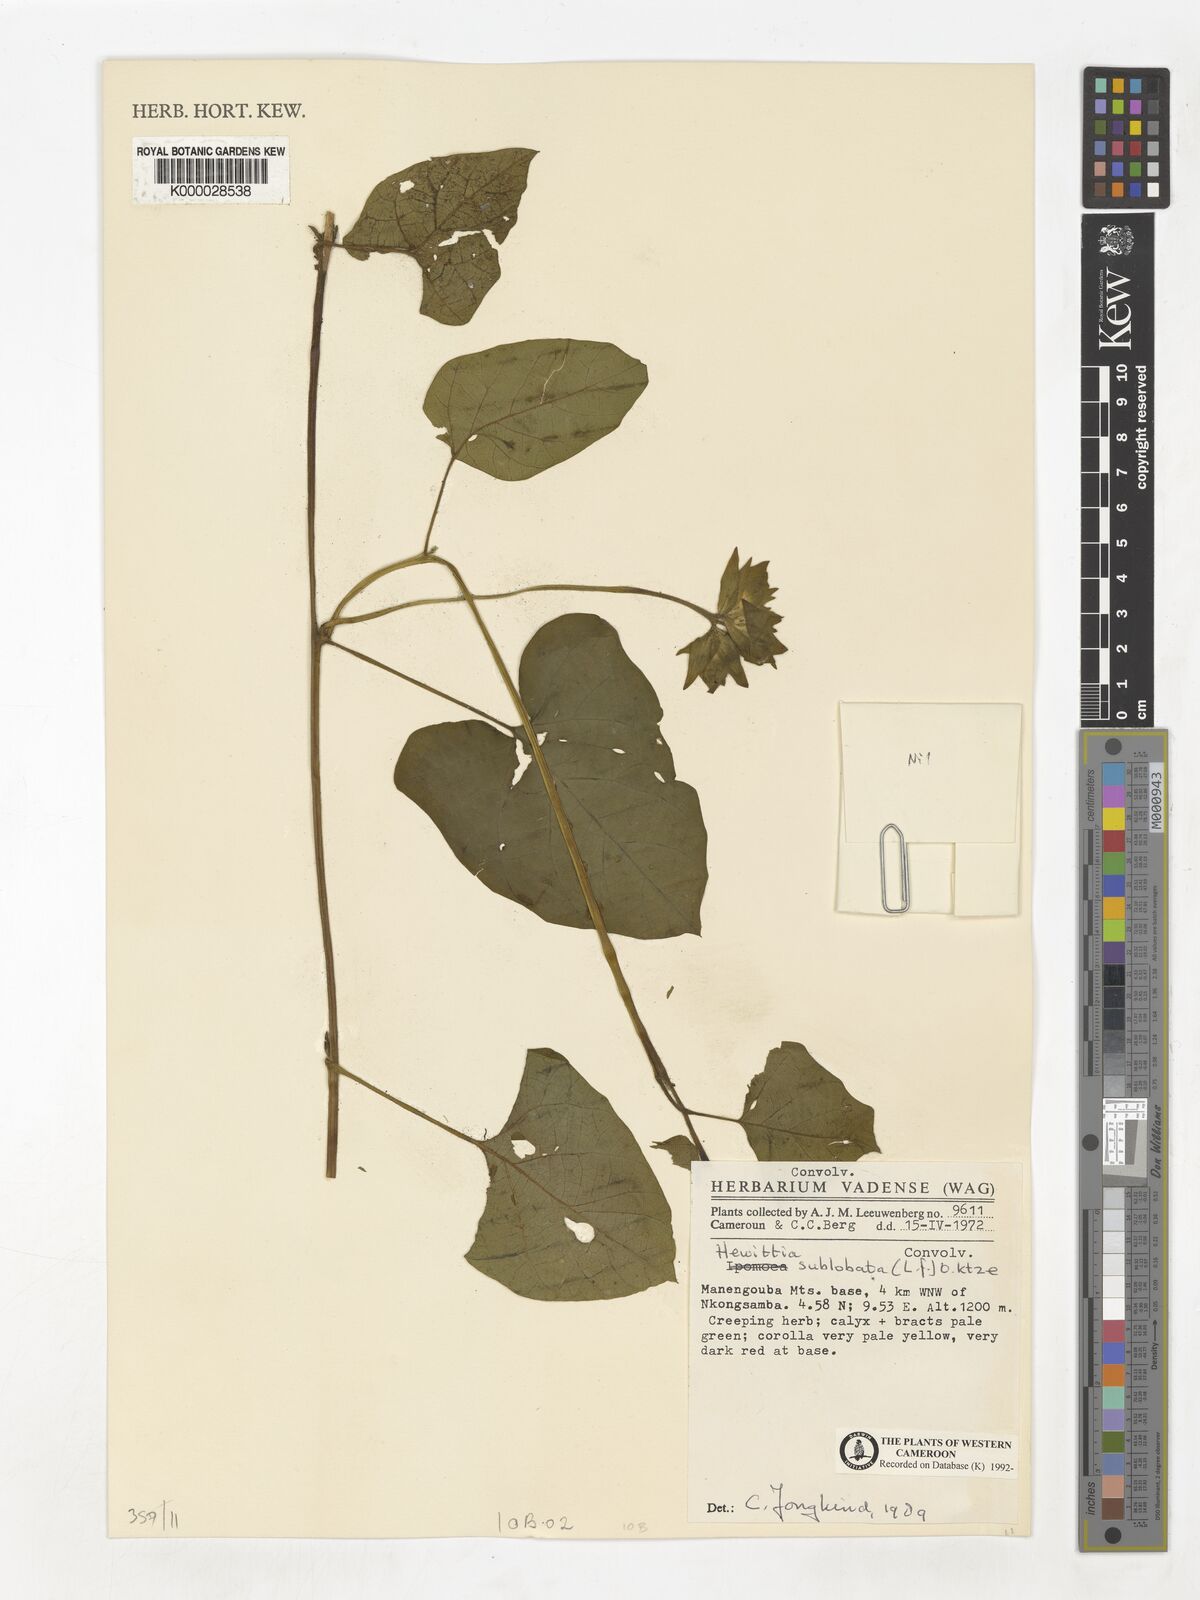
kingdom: Plantae
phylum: Tracheophyta
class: Magnoliopsida
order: Solanales
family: Convolvulaceae
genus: Hewittia
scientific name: Hewittia malabarica
